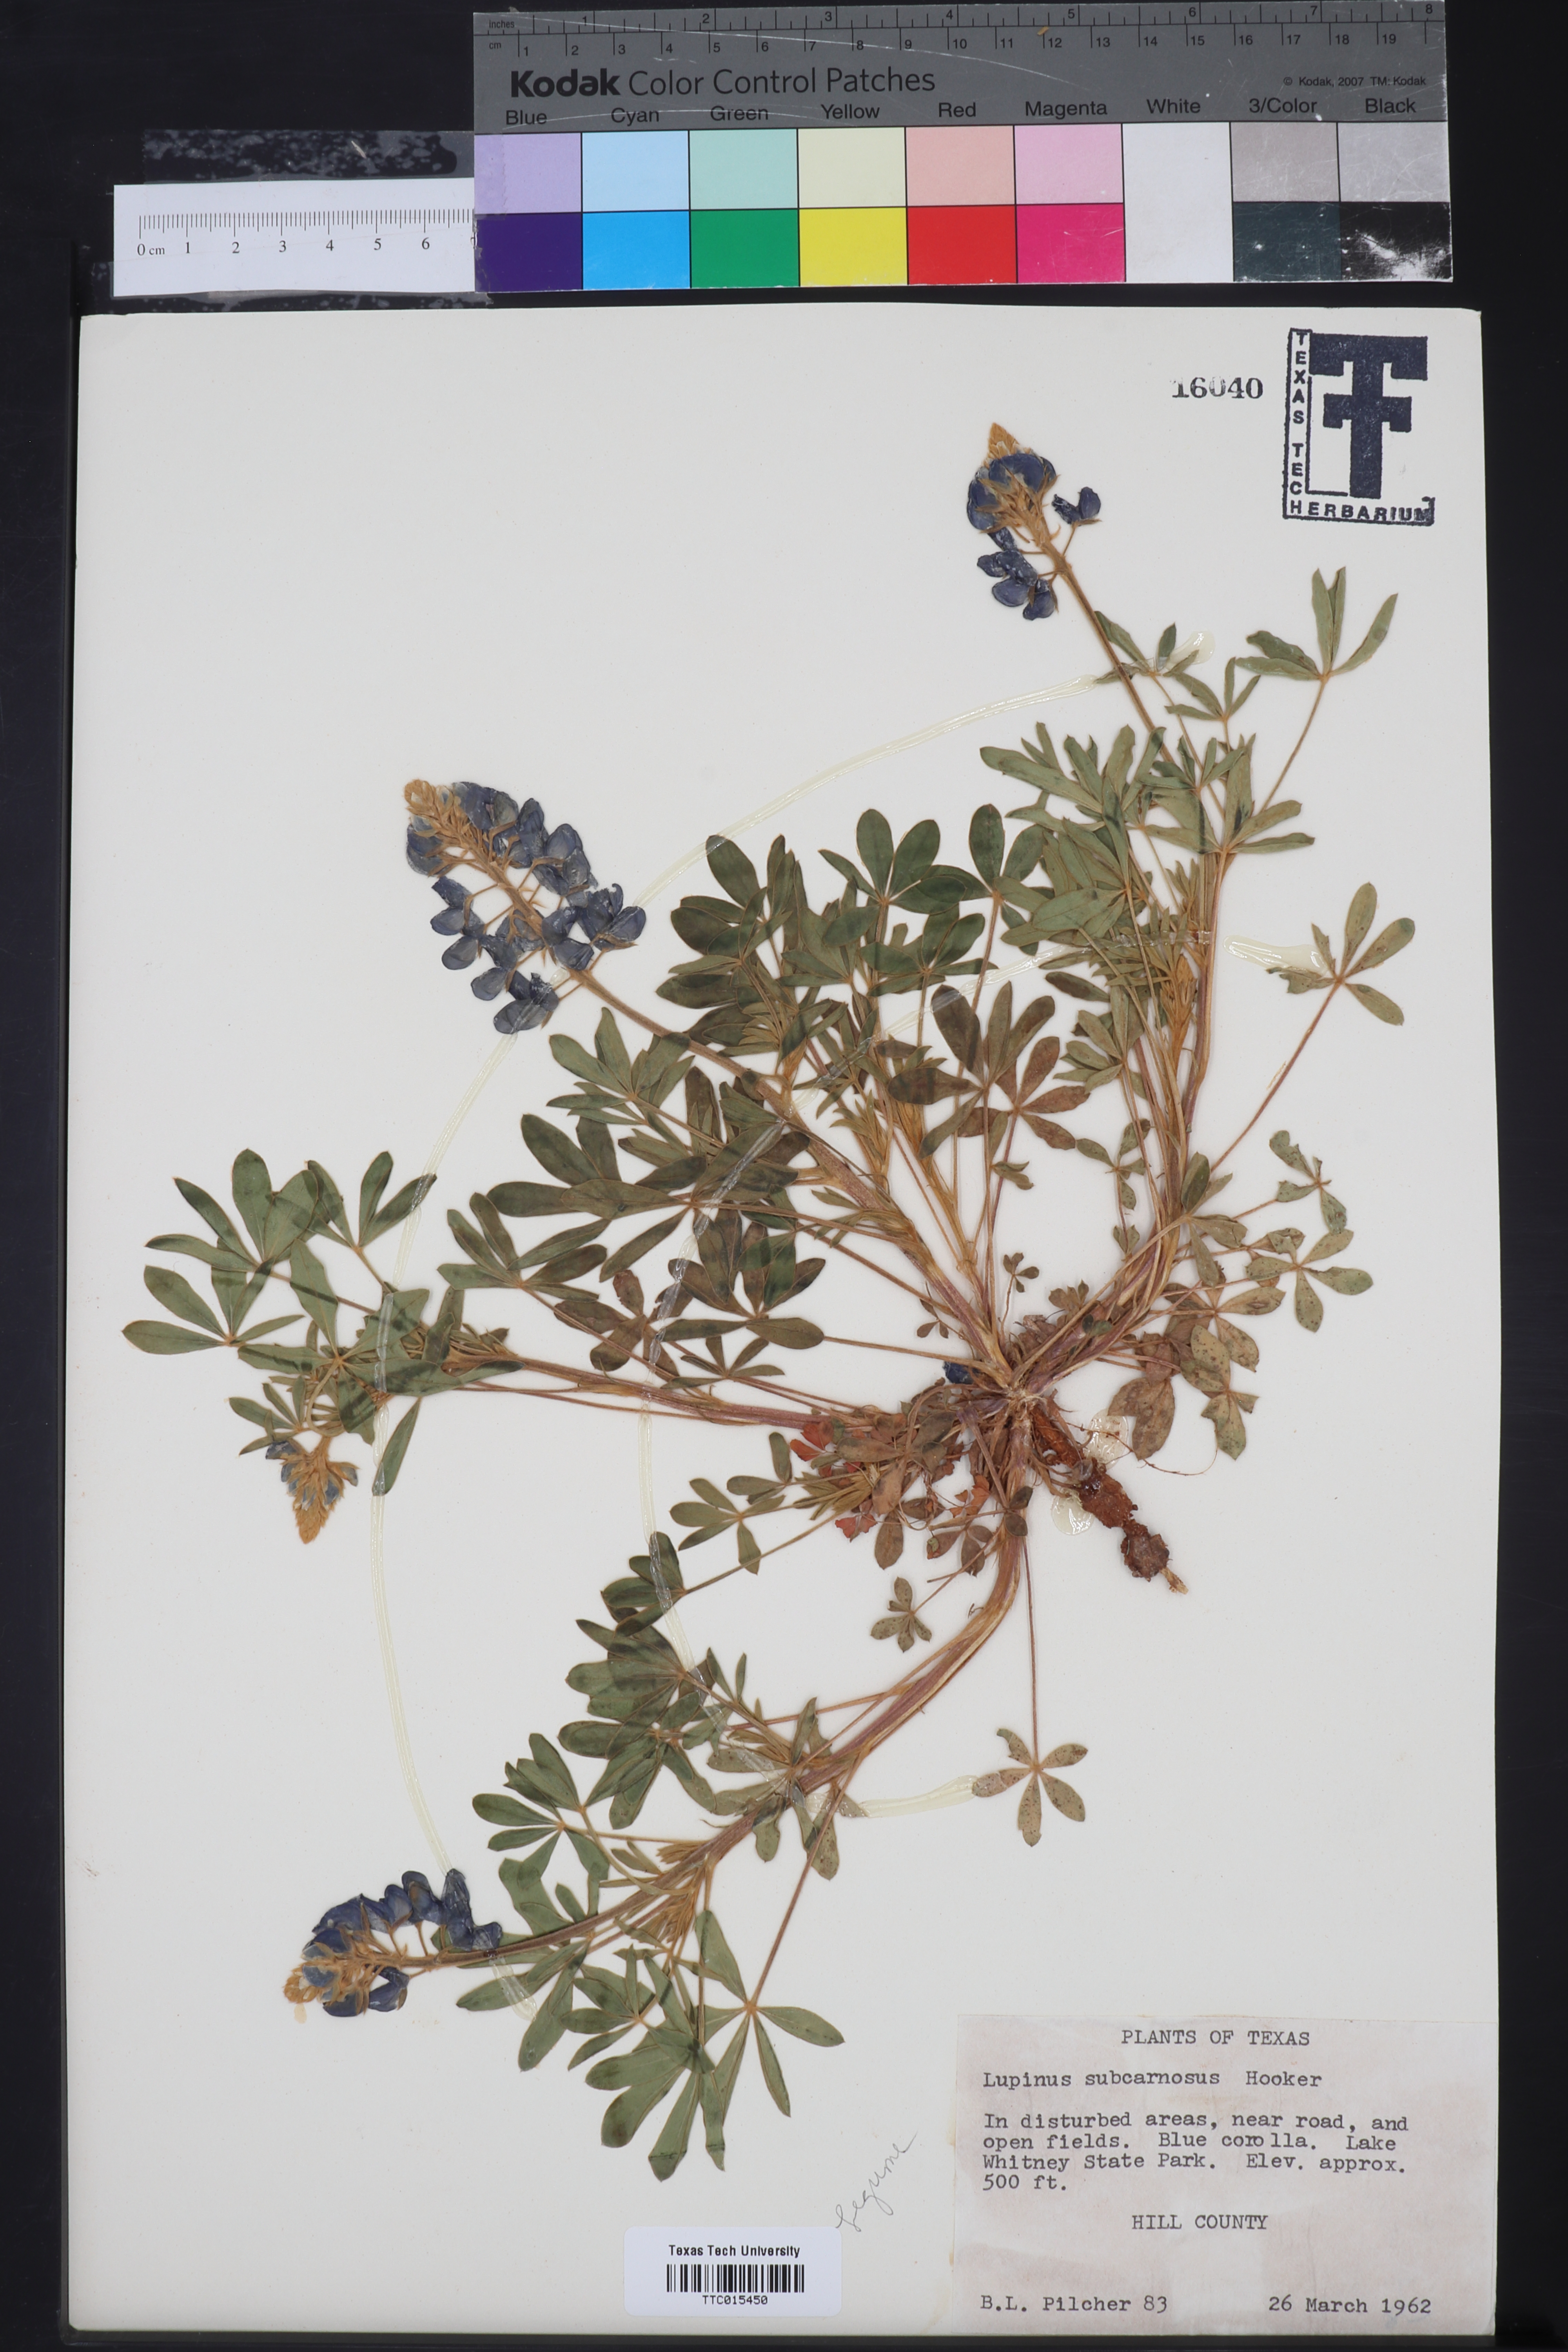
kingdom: Plantae
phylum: Tracheophyta
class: Magnoliopsida
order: Fabales
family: Fabaceae
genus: Lupinus
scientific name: Lupinus subcarnosus
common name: Texas bluebonnet
